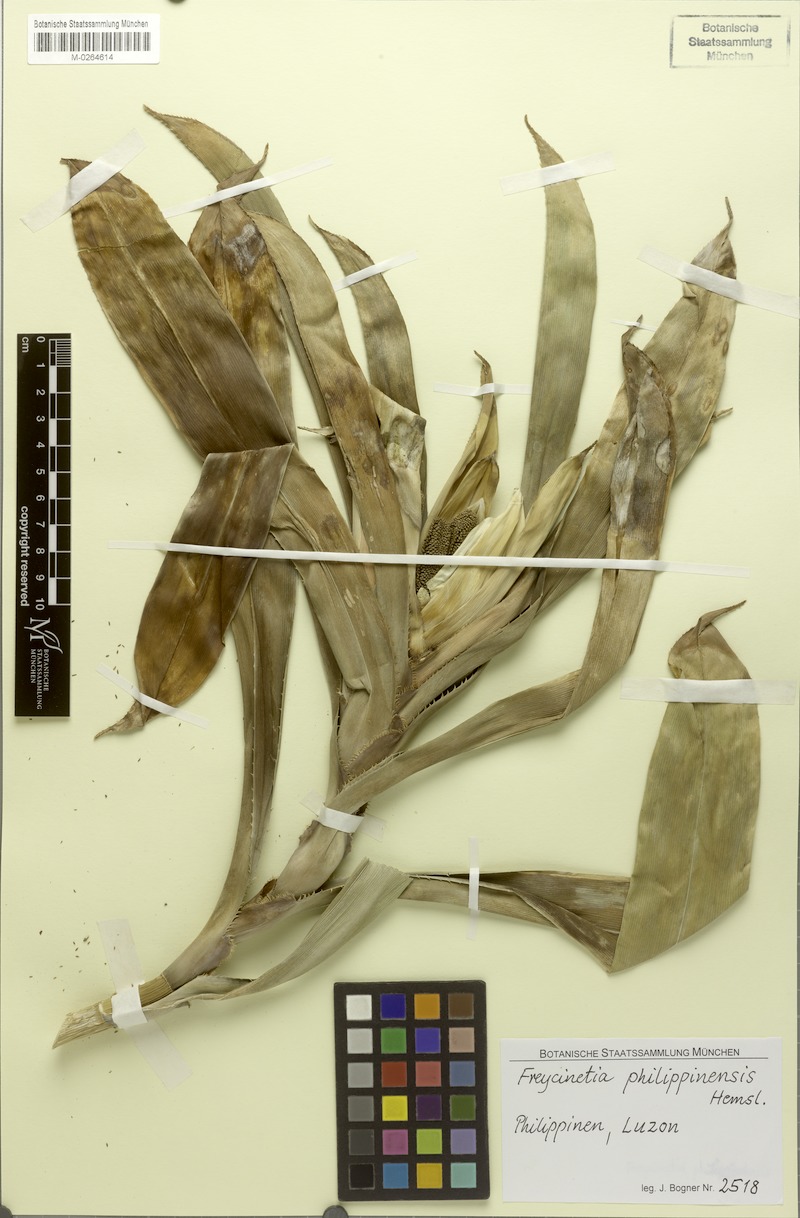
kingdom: Plantae
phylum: Tracheophyta
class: Liliopsida
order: Pandanales
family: Pandanaceae
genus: Freycinetia
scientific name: Freycinetia philippinensis
